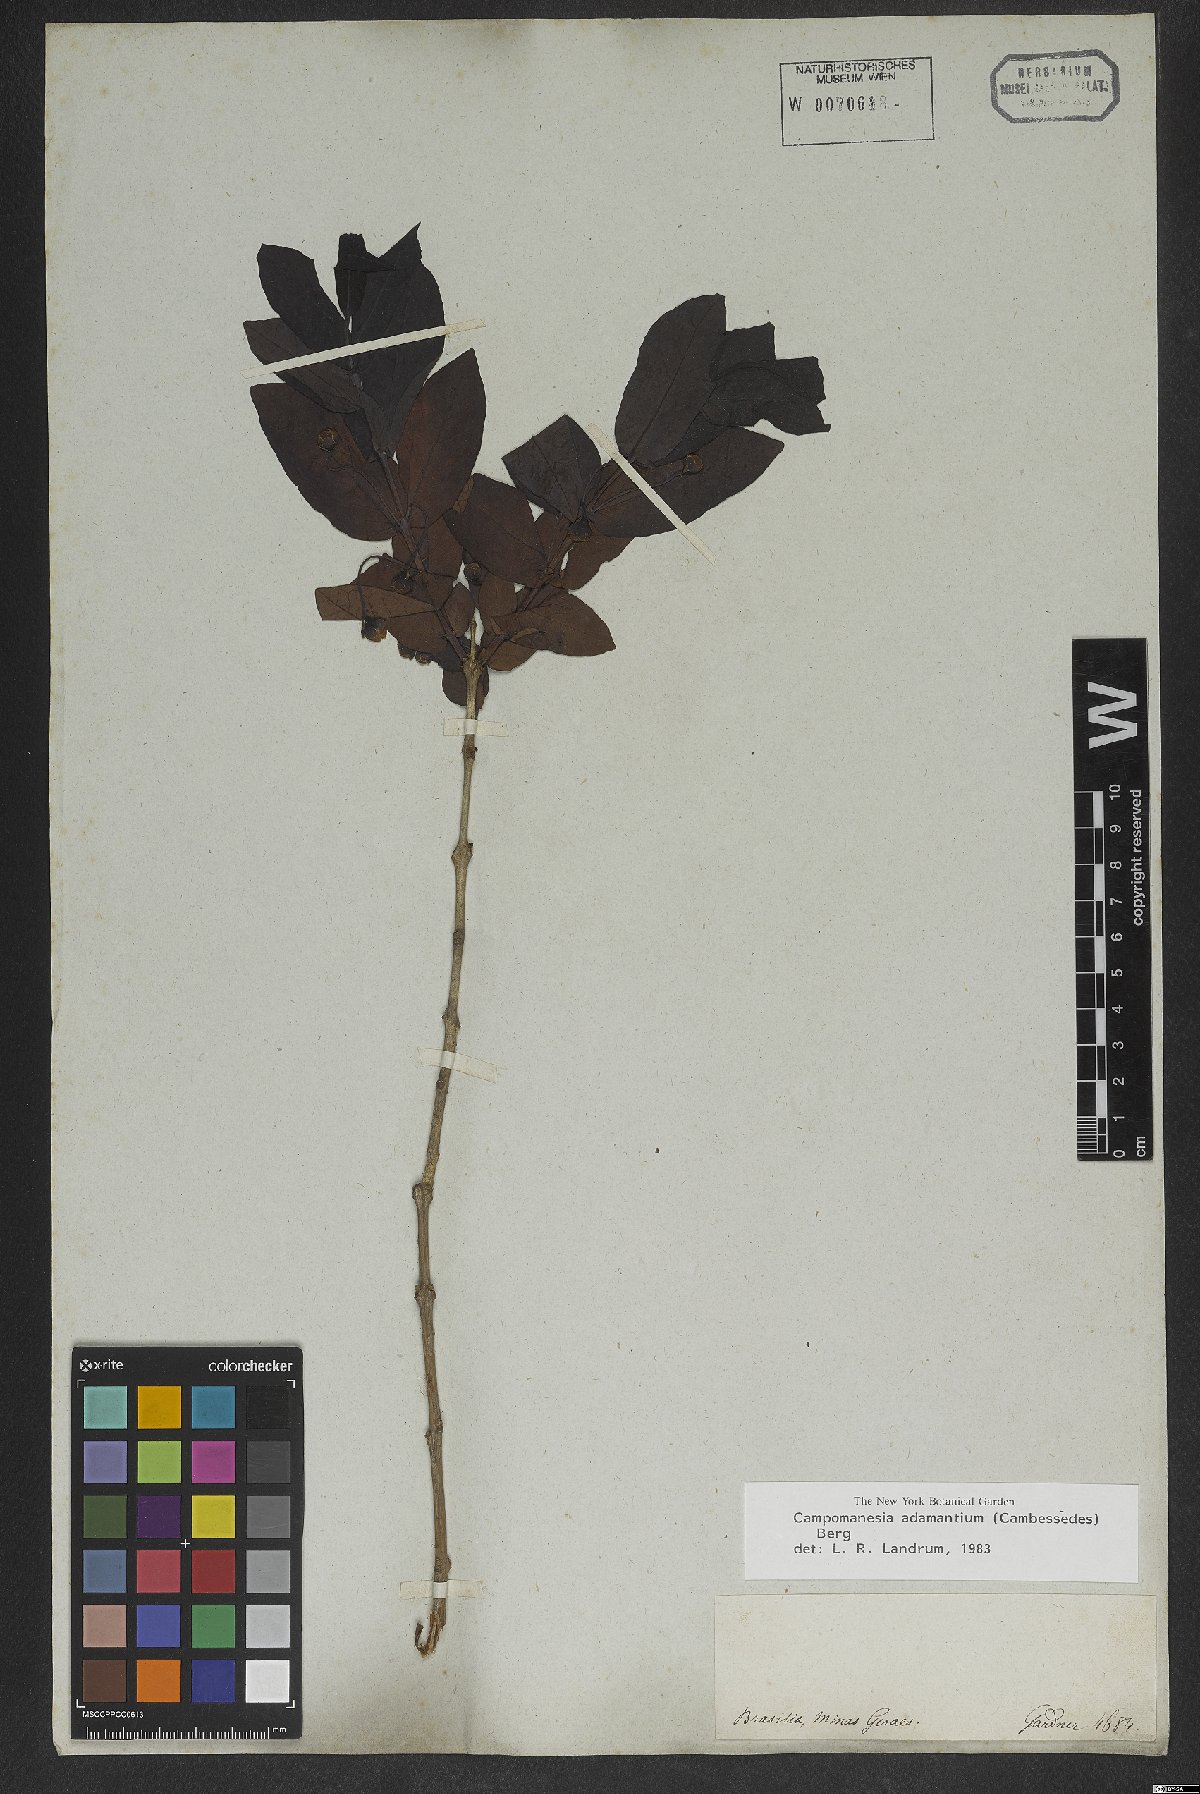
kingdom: Plantae
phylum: Tracheophyta
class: Magnoliopsida
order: Myrtales
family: Myrtaceae
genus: Campomanesia
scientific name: Campomanesia adamantium
